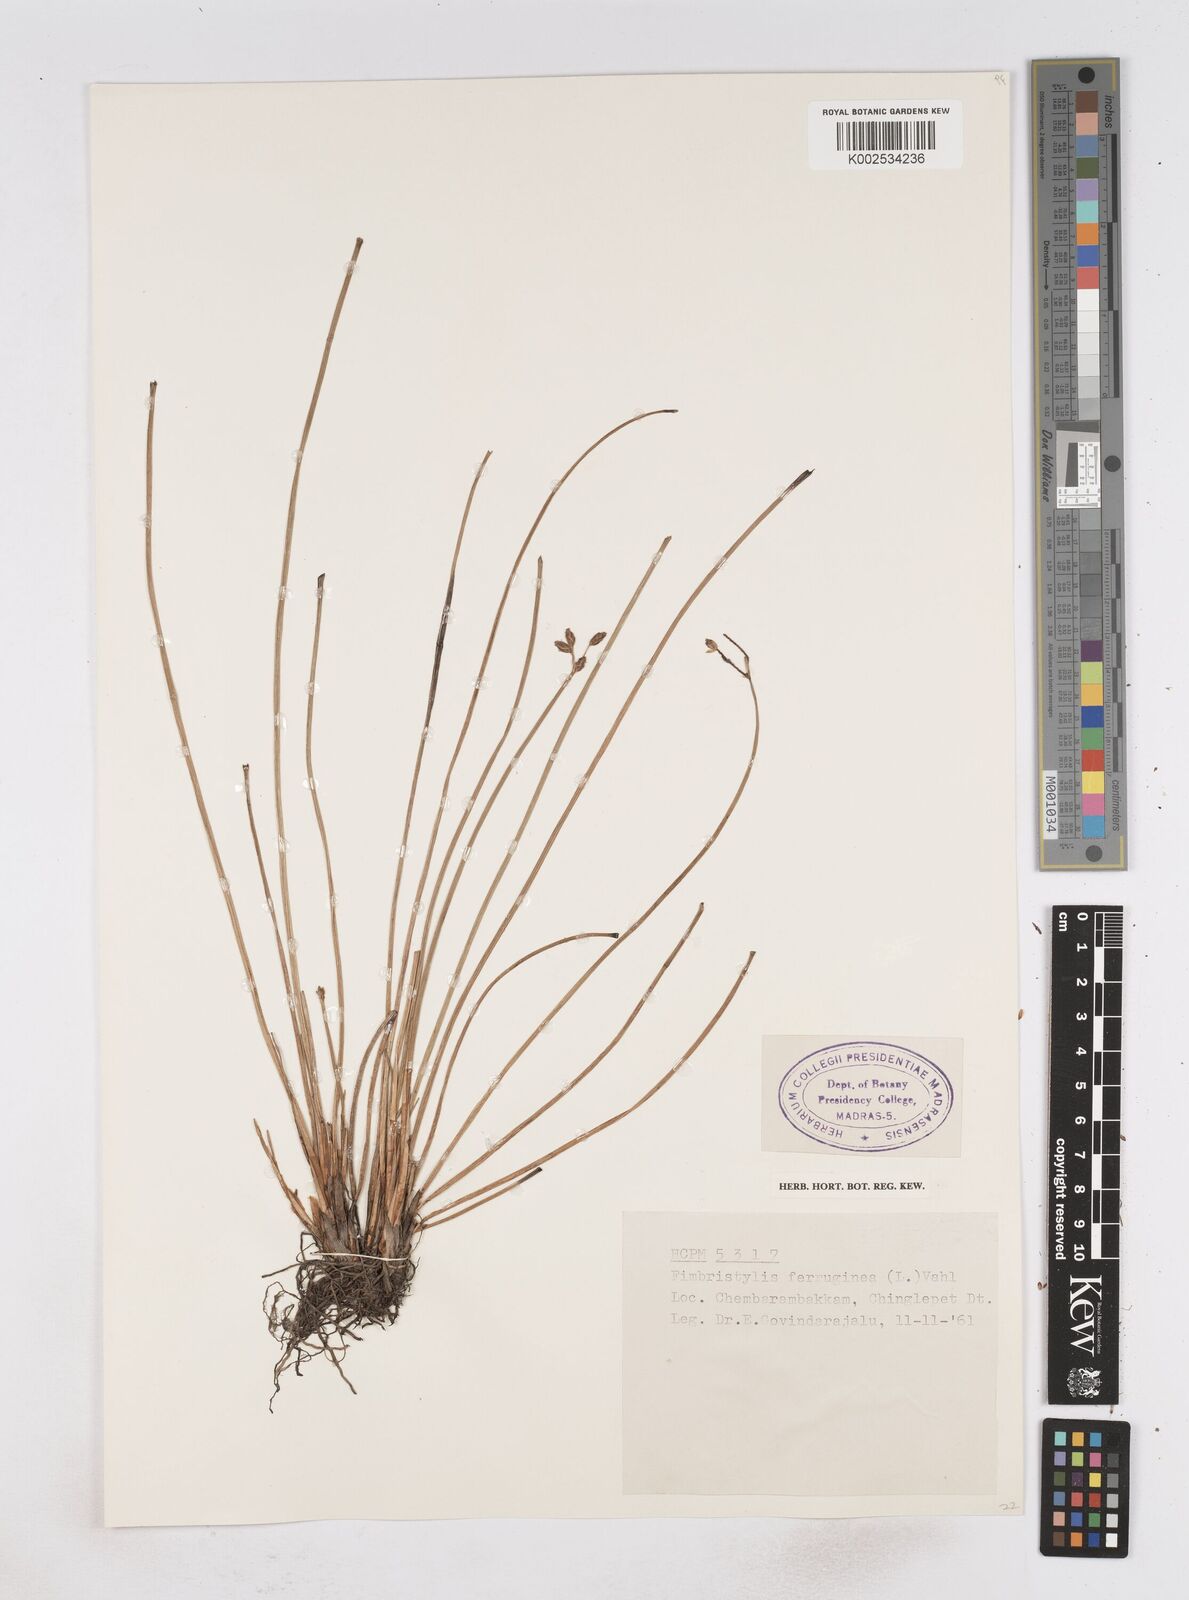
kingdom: Plantae
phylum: Tracheophyta
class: Liliopsida
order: Poales
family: Cyperaceae
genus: Fimbristylis
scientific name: Fimbristylis ferruginea
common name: West indian fimbry
